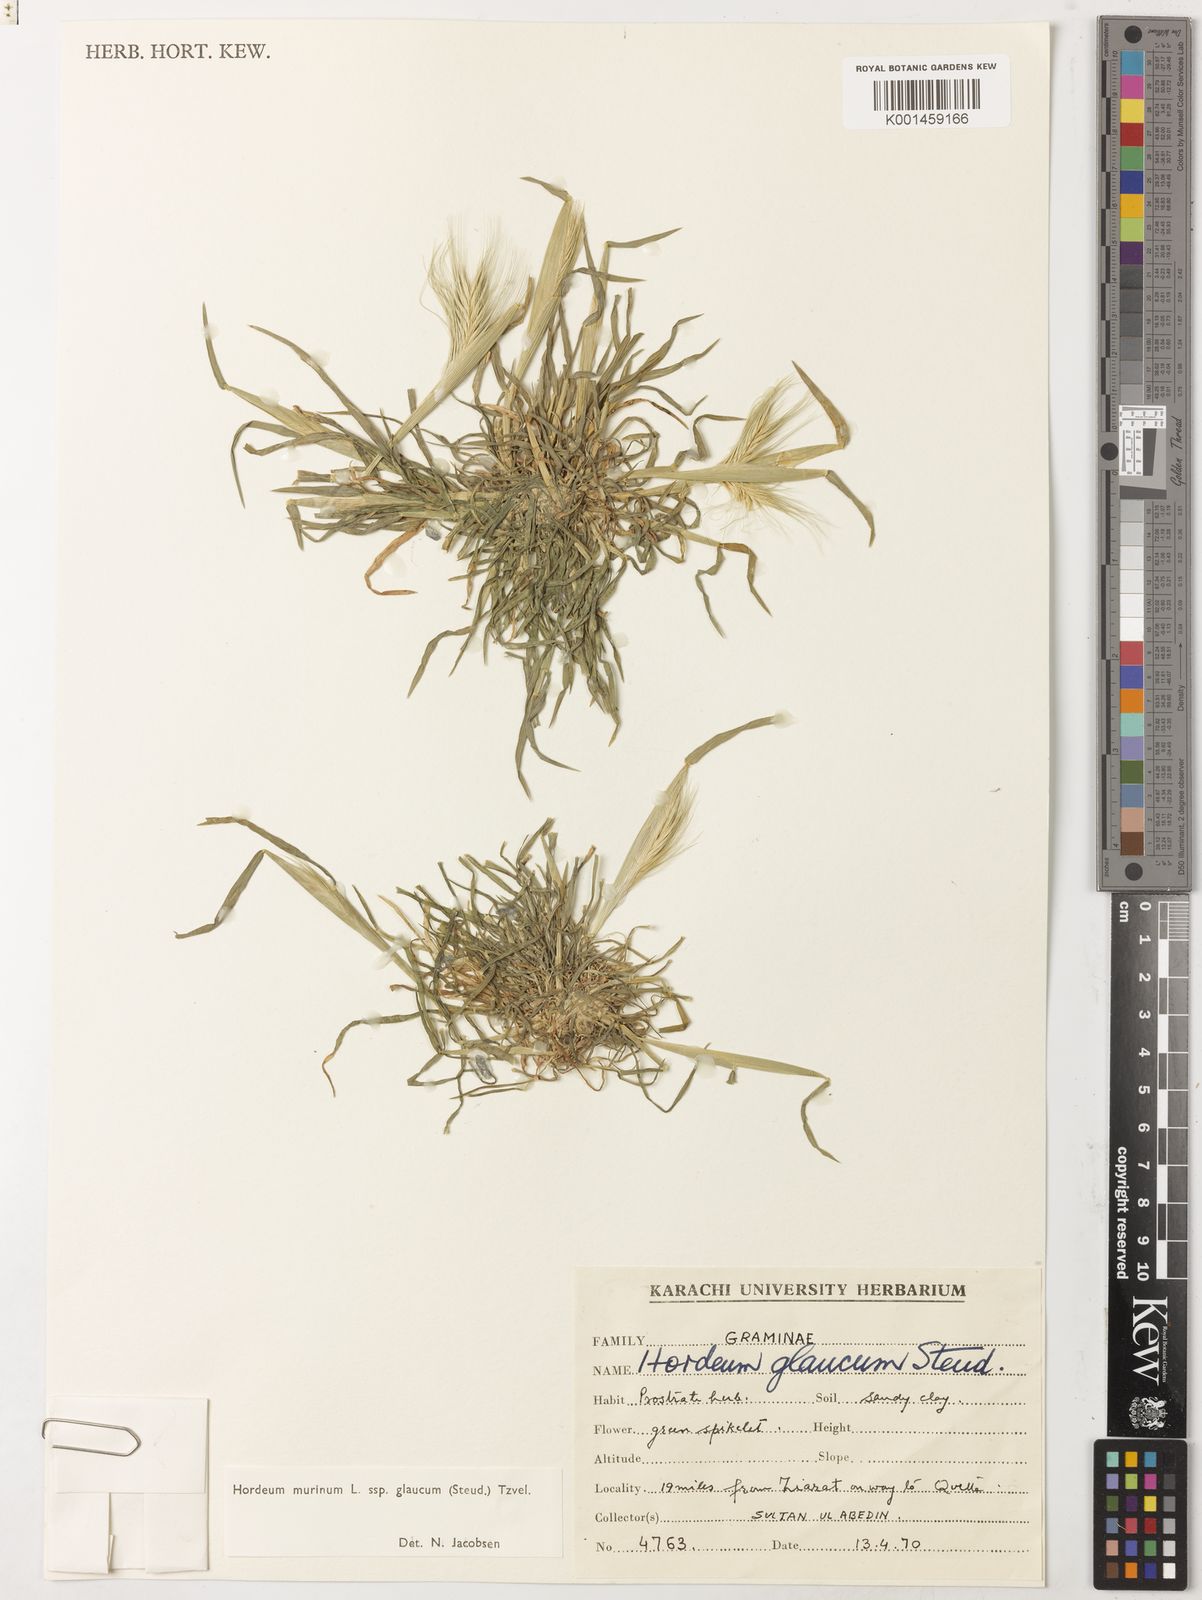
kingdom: Plantae
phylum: Tracheophyta
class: Liliopsida
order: Poales
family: Poaceae
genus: Hordeum
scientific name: Hordeum murinum
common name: Wall barley
